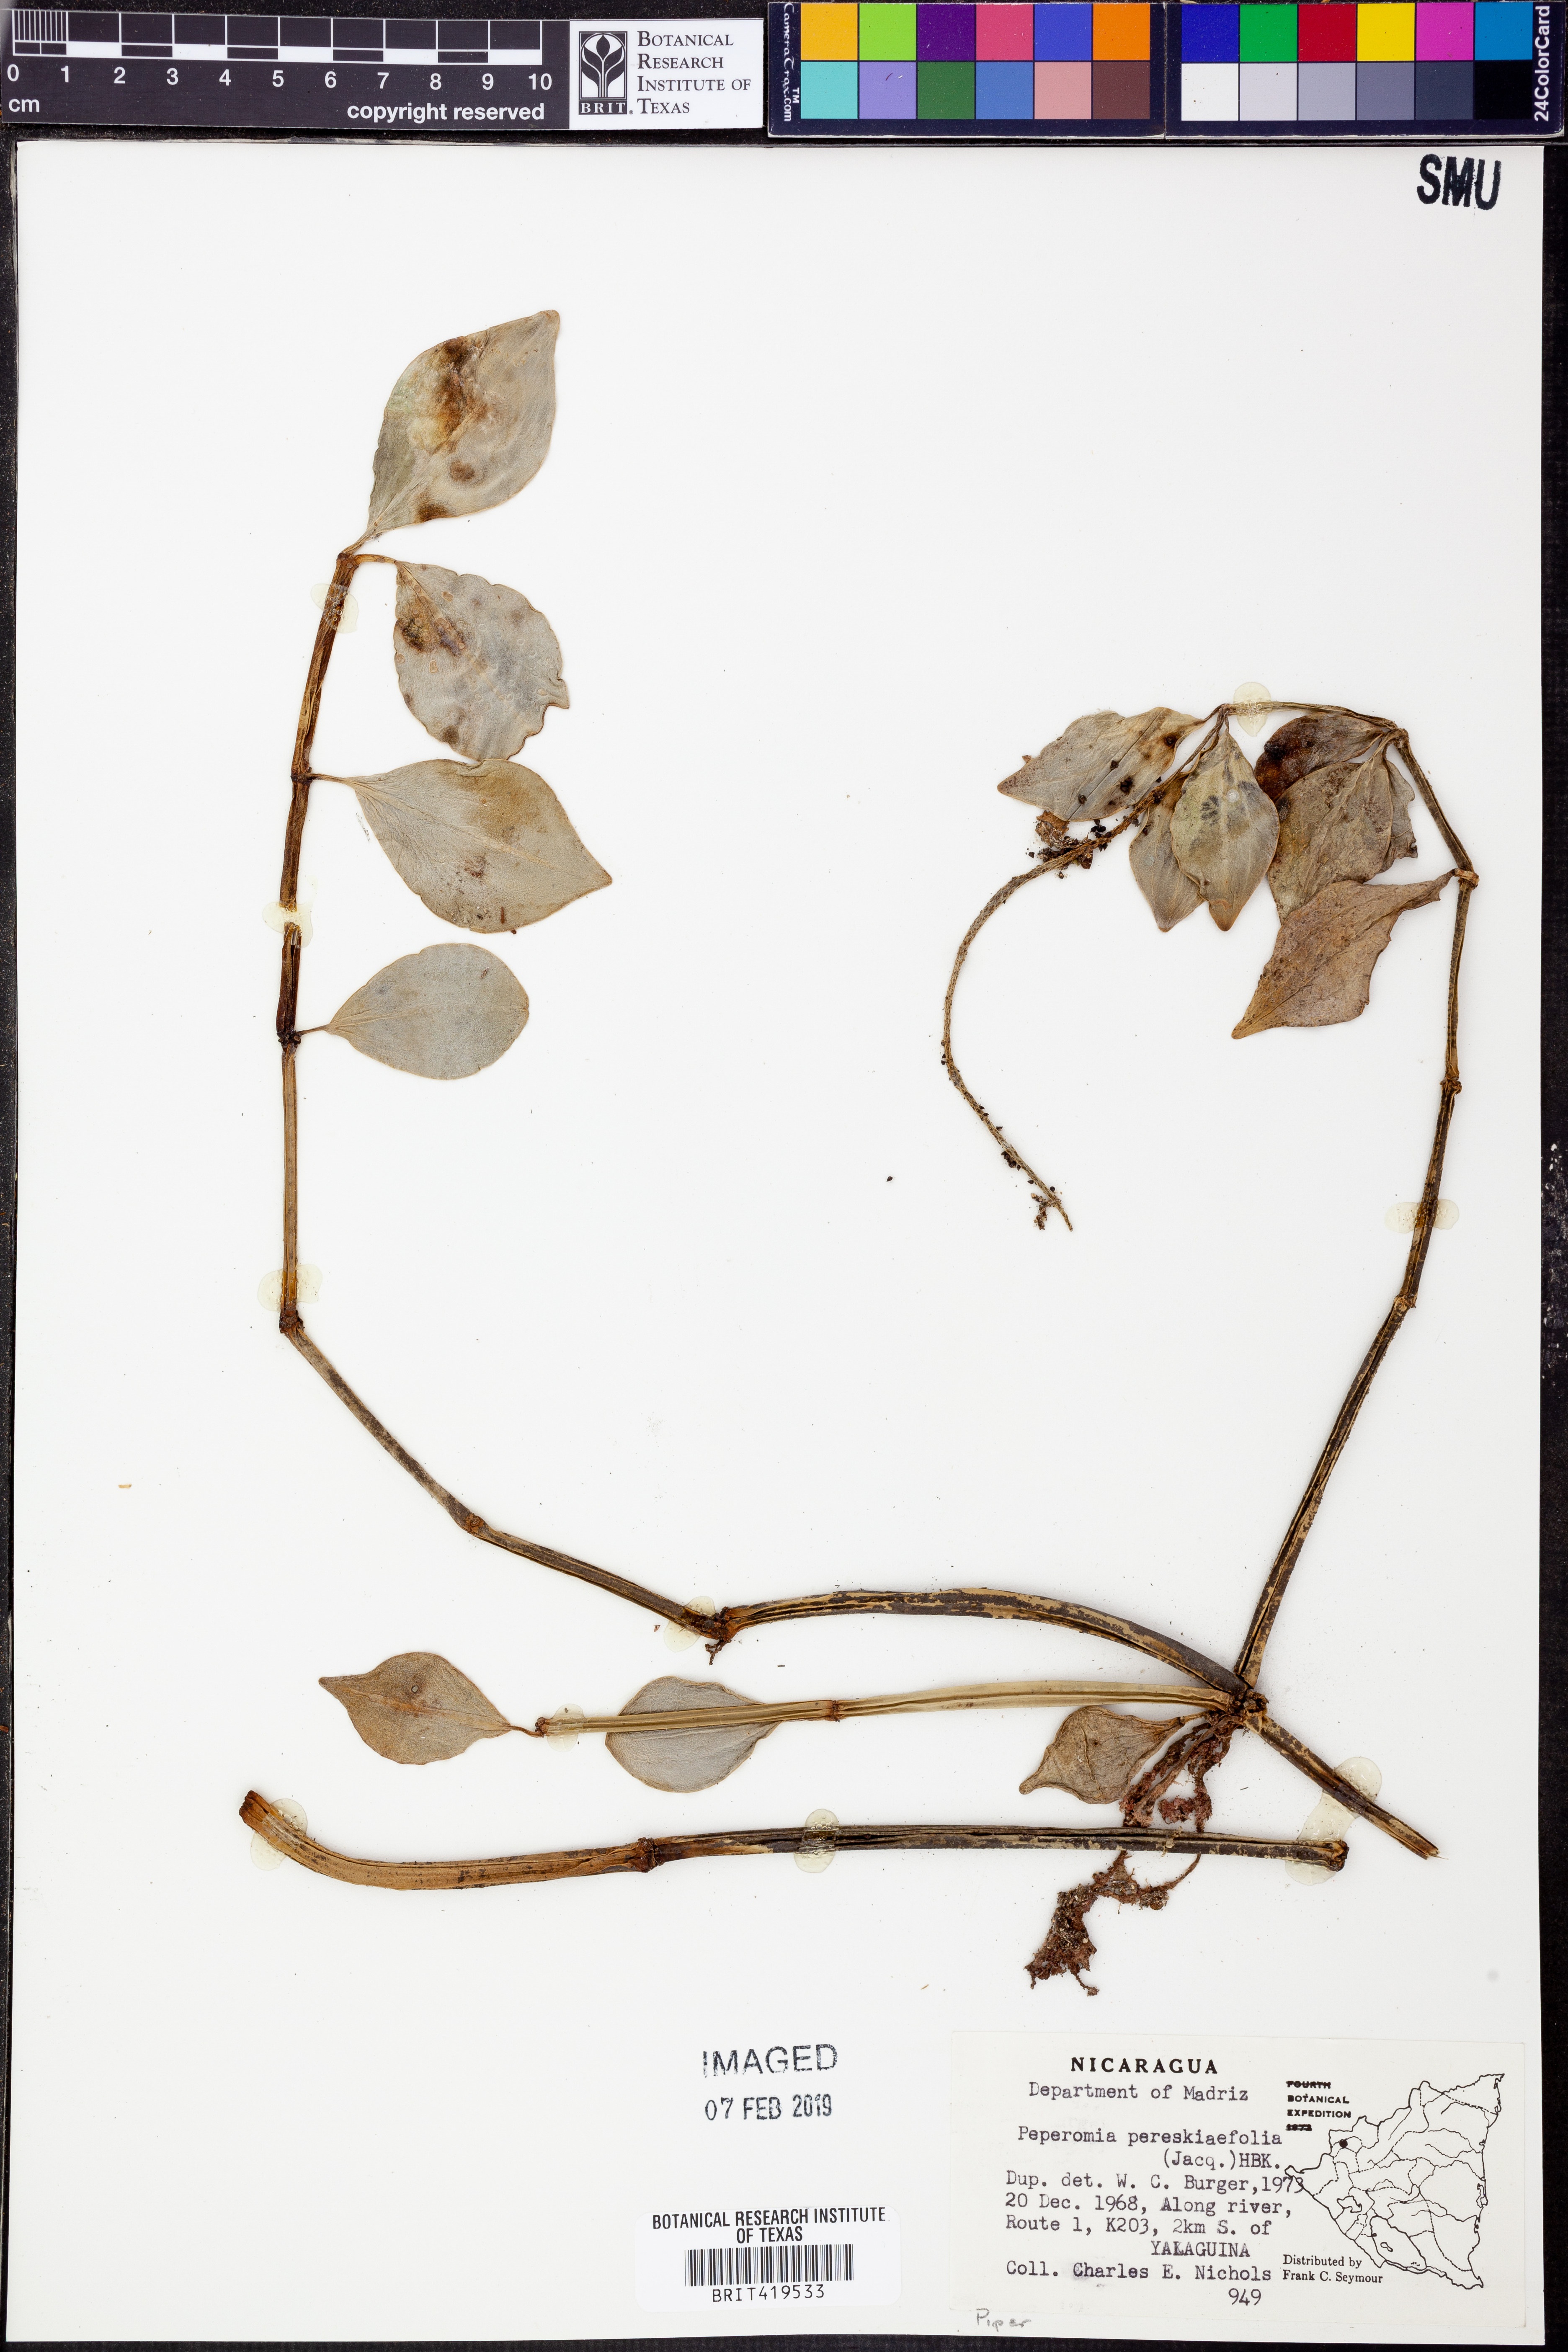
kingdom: Plantae
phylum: Tracheophyta
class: Magnoliopsida
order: Piperales
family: Piperaceae
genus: Peperomia
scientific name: Peperomia pereskiifolia
